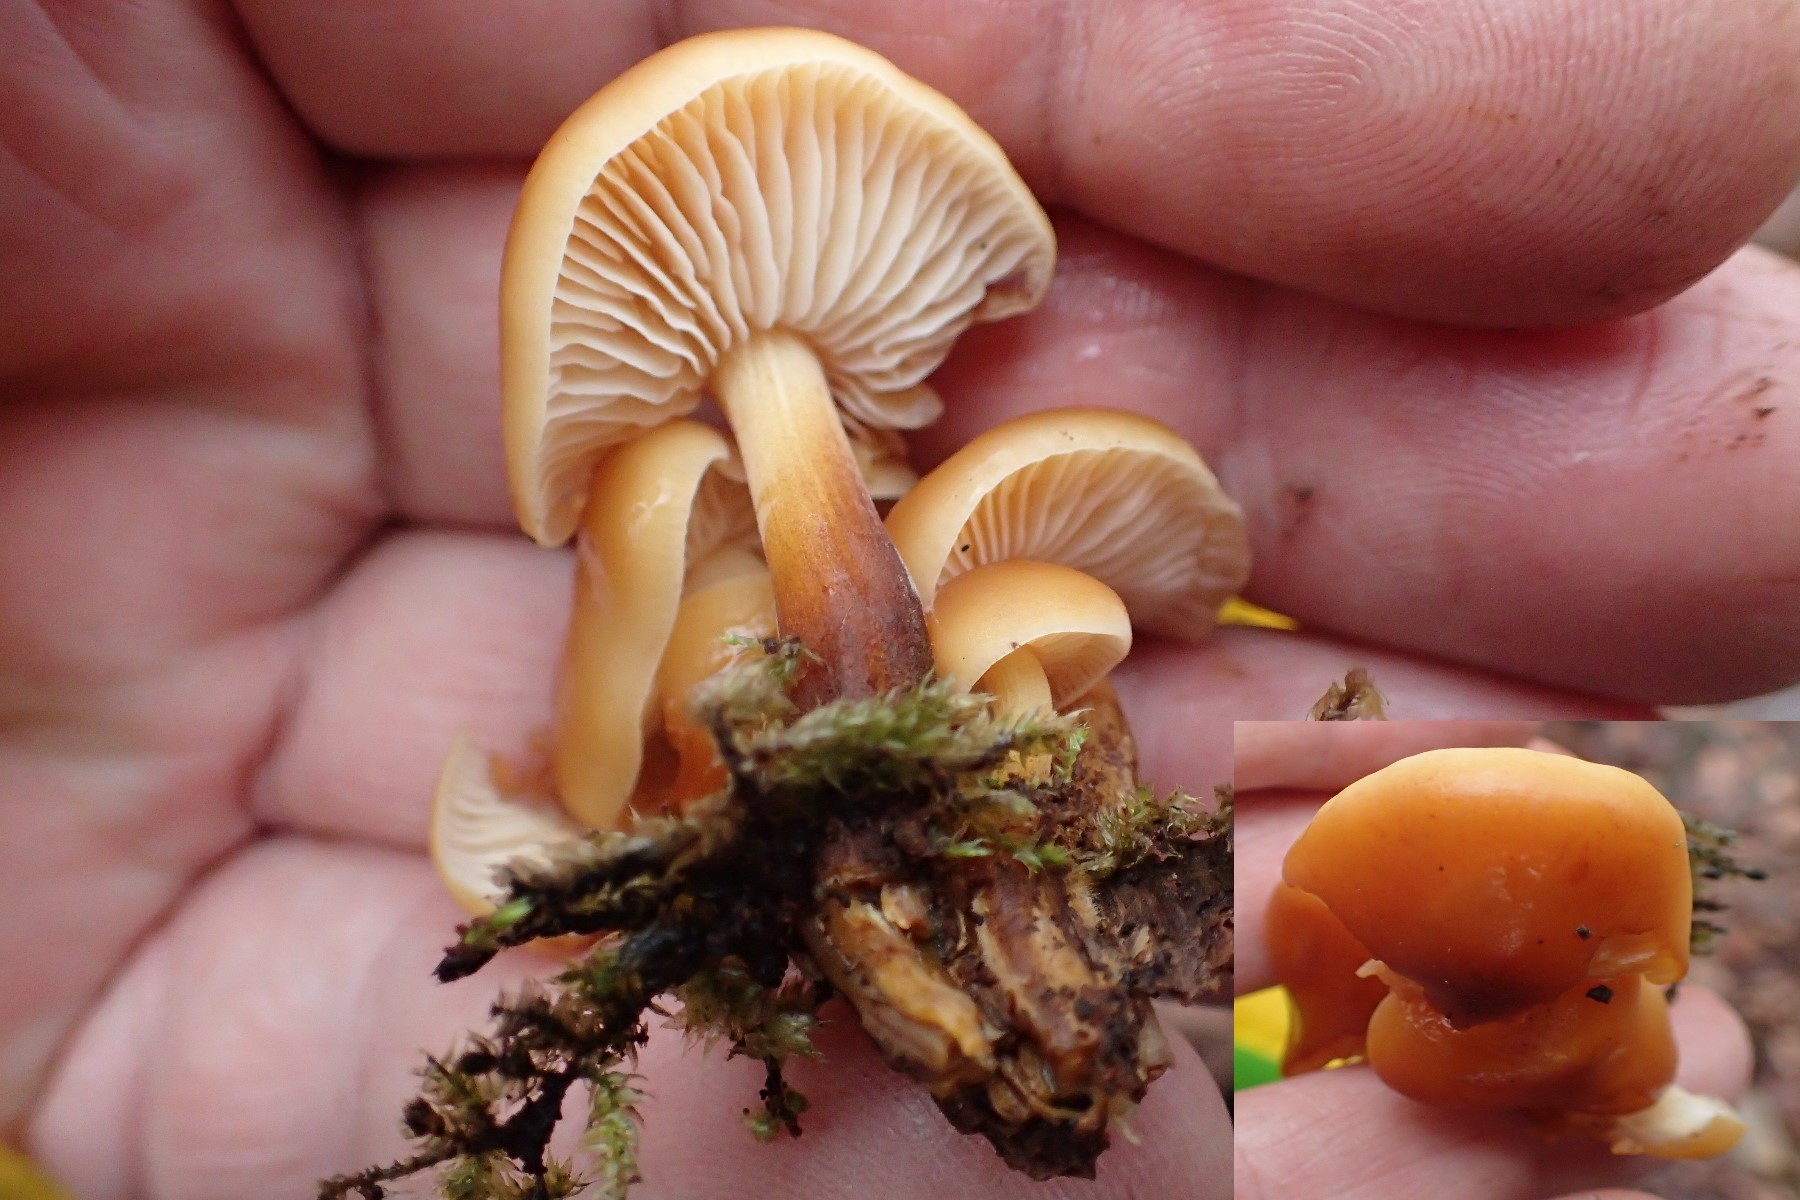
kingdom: Fungi
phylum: Basidiomycota
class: Agaricomycetes
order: Agaricales
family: Physalacriaceae
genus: Flammulina
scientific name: Flammulina velutipes
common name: gul fløjlsfod
